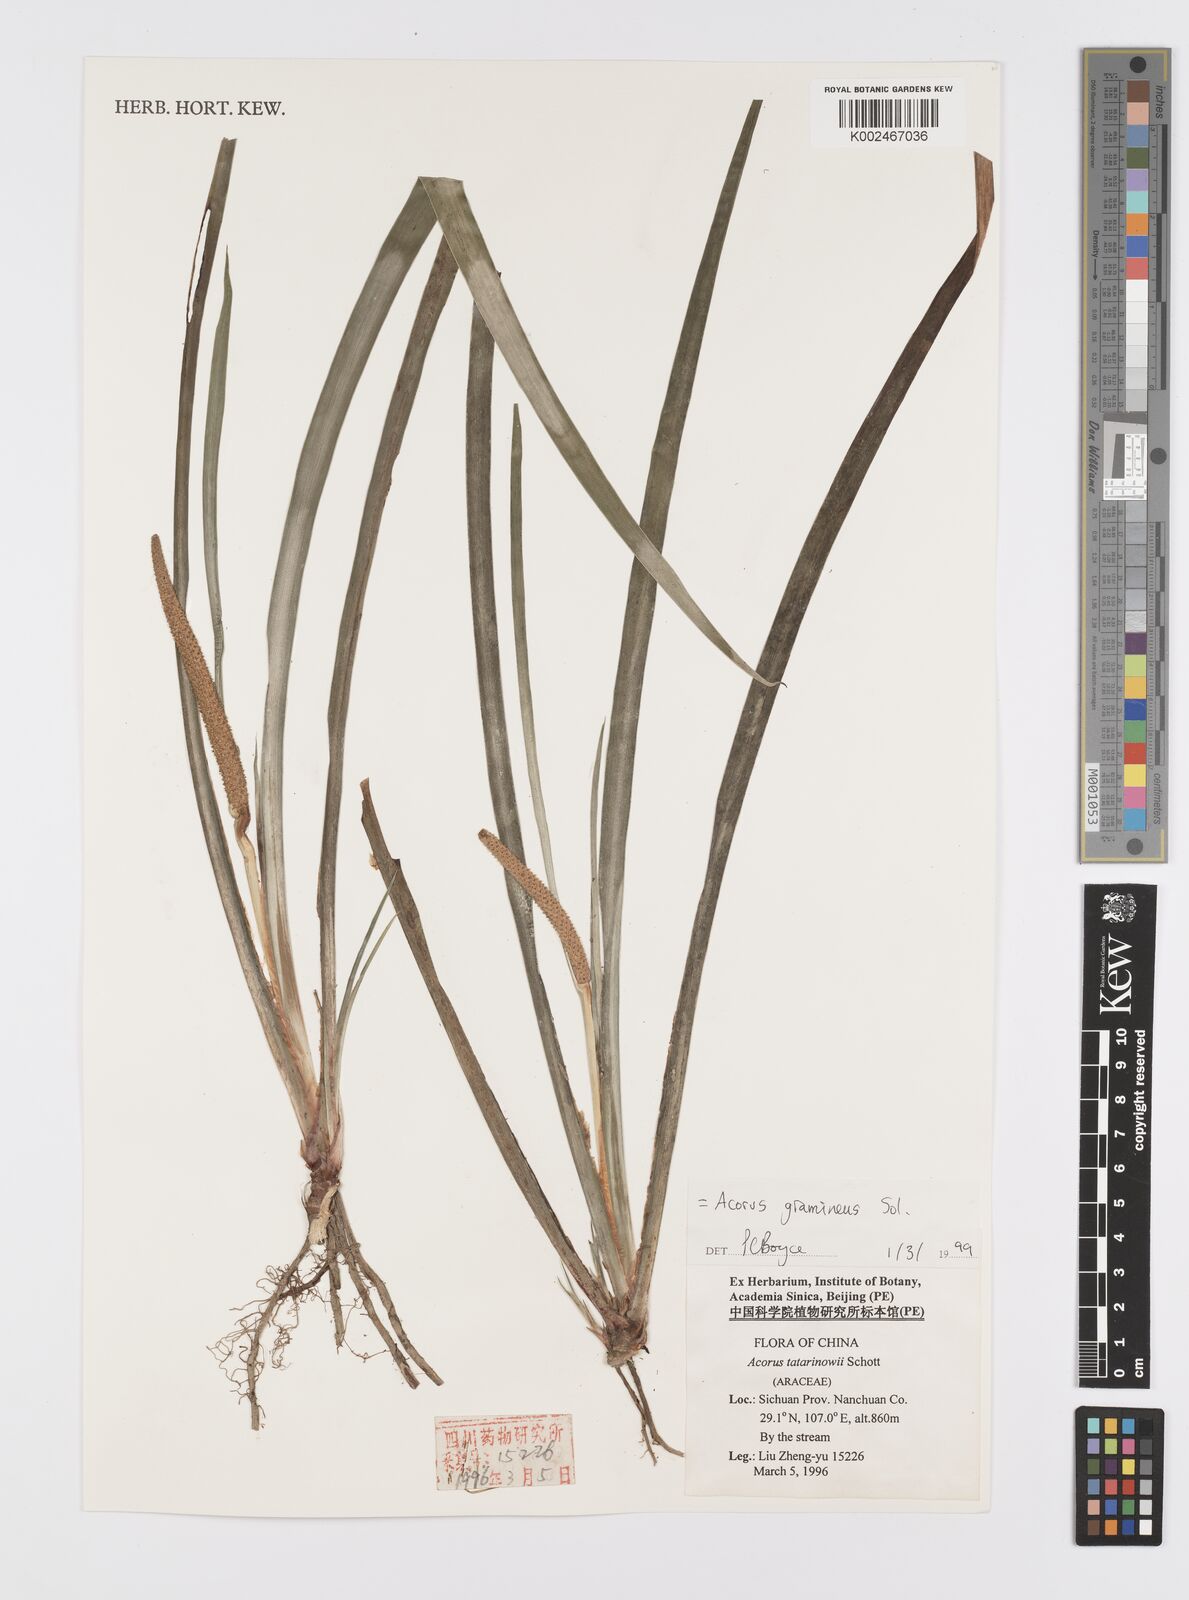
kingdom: Plantae
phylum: Tracheophyta
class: Liliopsida
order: Acorales
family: Acoraceae
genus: Acorus
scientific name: Acorus gramineus
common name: Slender sweet-flag
